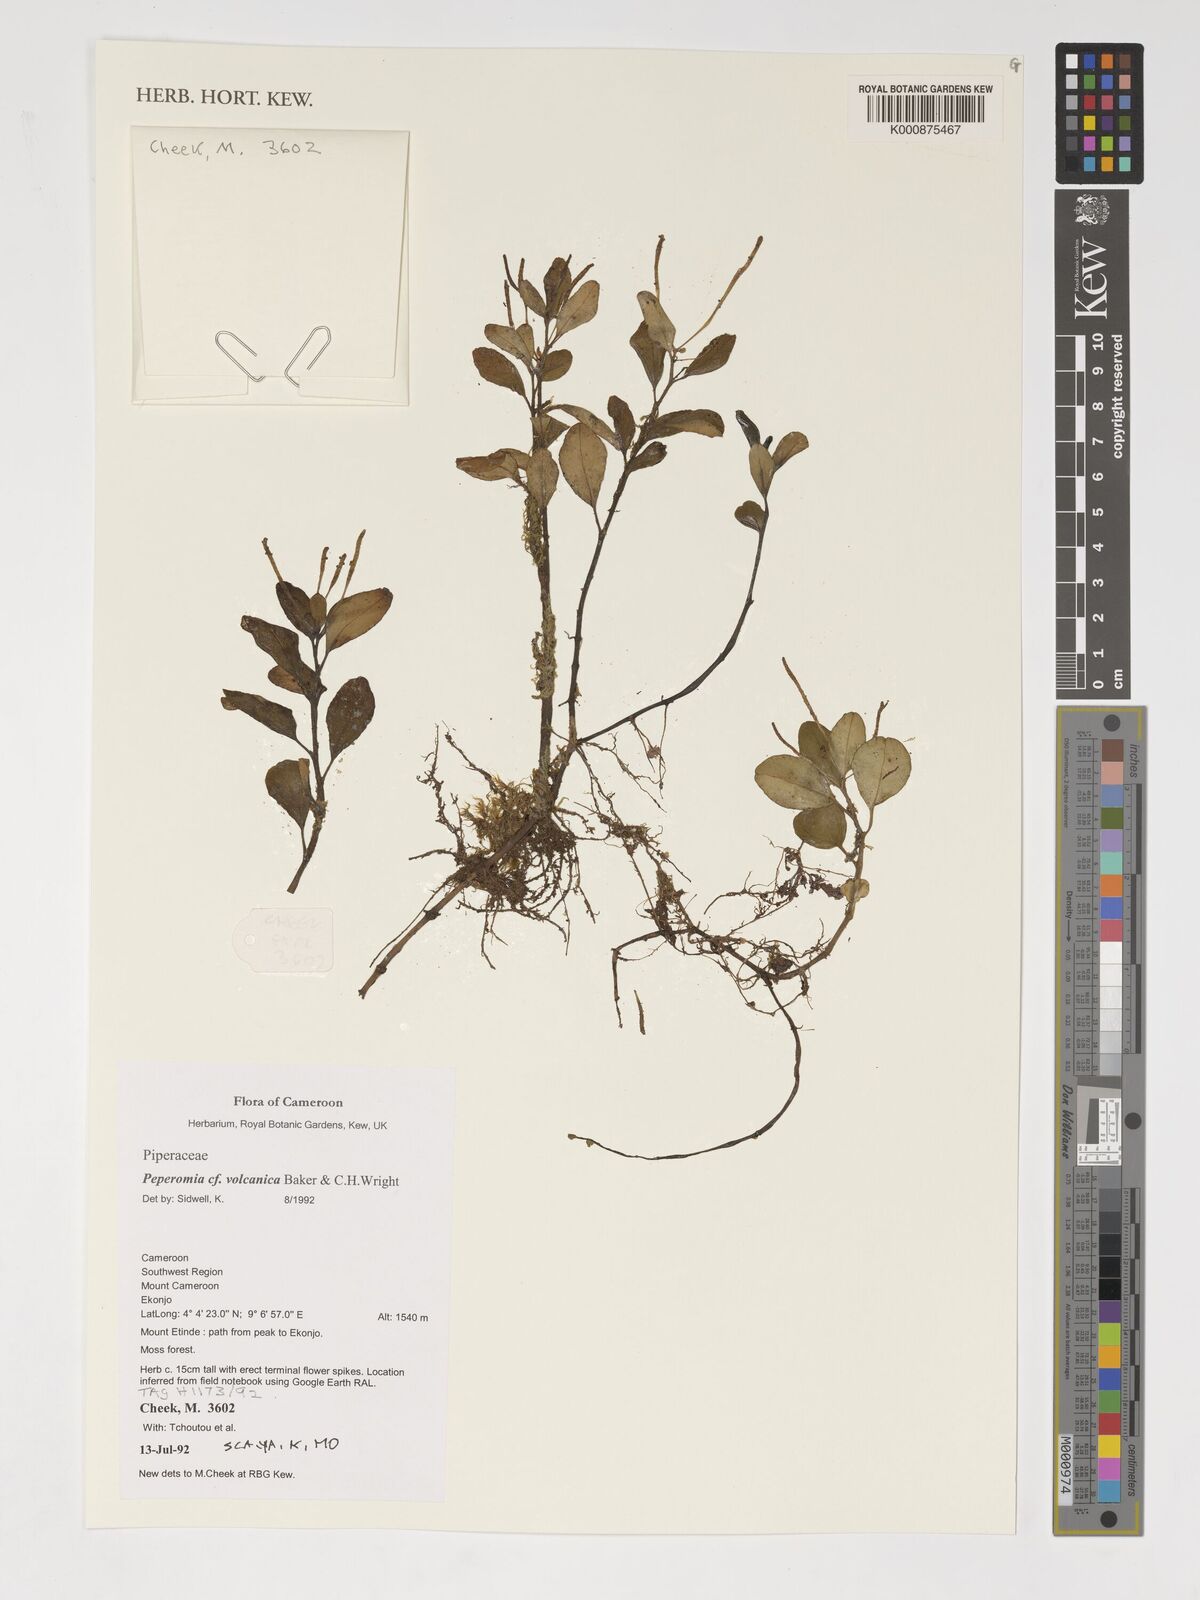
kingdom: Plantae
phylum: Tracheophyta
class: Magnoliopsida
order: Piperales
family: Piperaceae
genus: Peperomia
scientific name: Peperomia vulcanica
